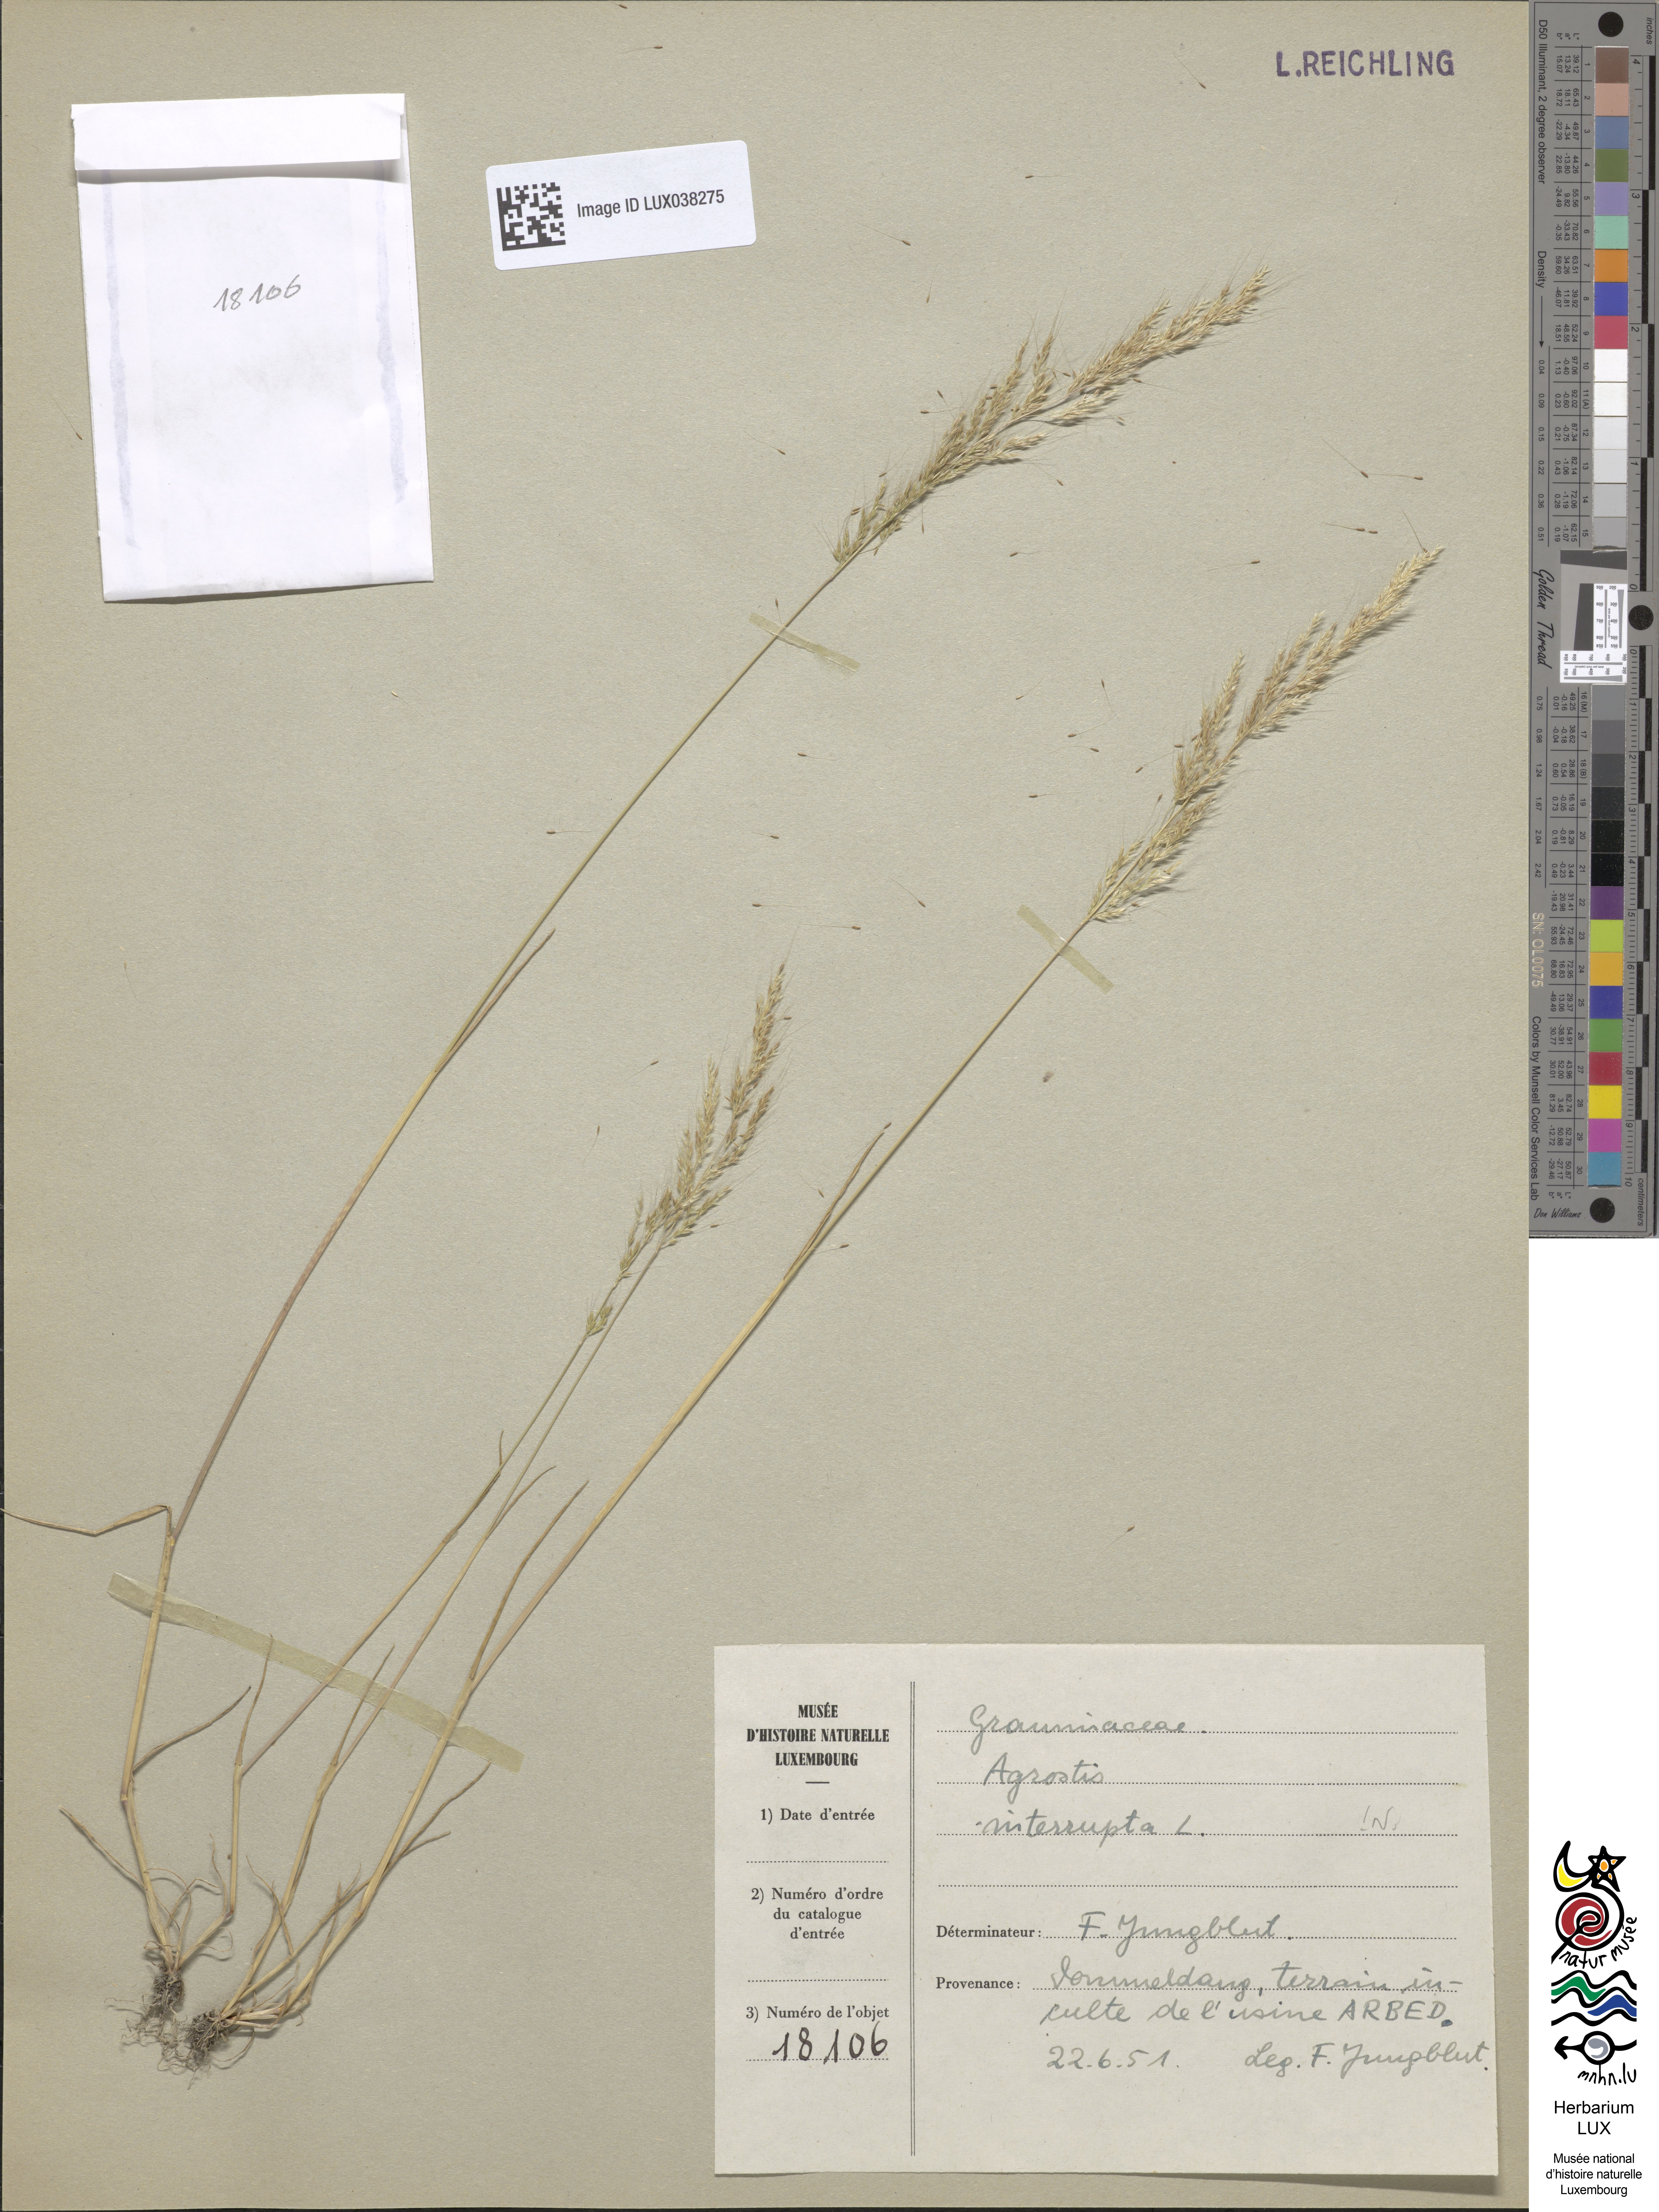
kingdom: Plantae
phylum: Tracheophyta
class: Liliopsida
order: Poales
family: Poaceae
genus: Apera
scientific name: Apera interrupta
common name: Dense silky-bent
